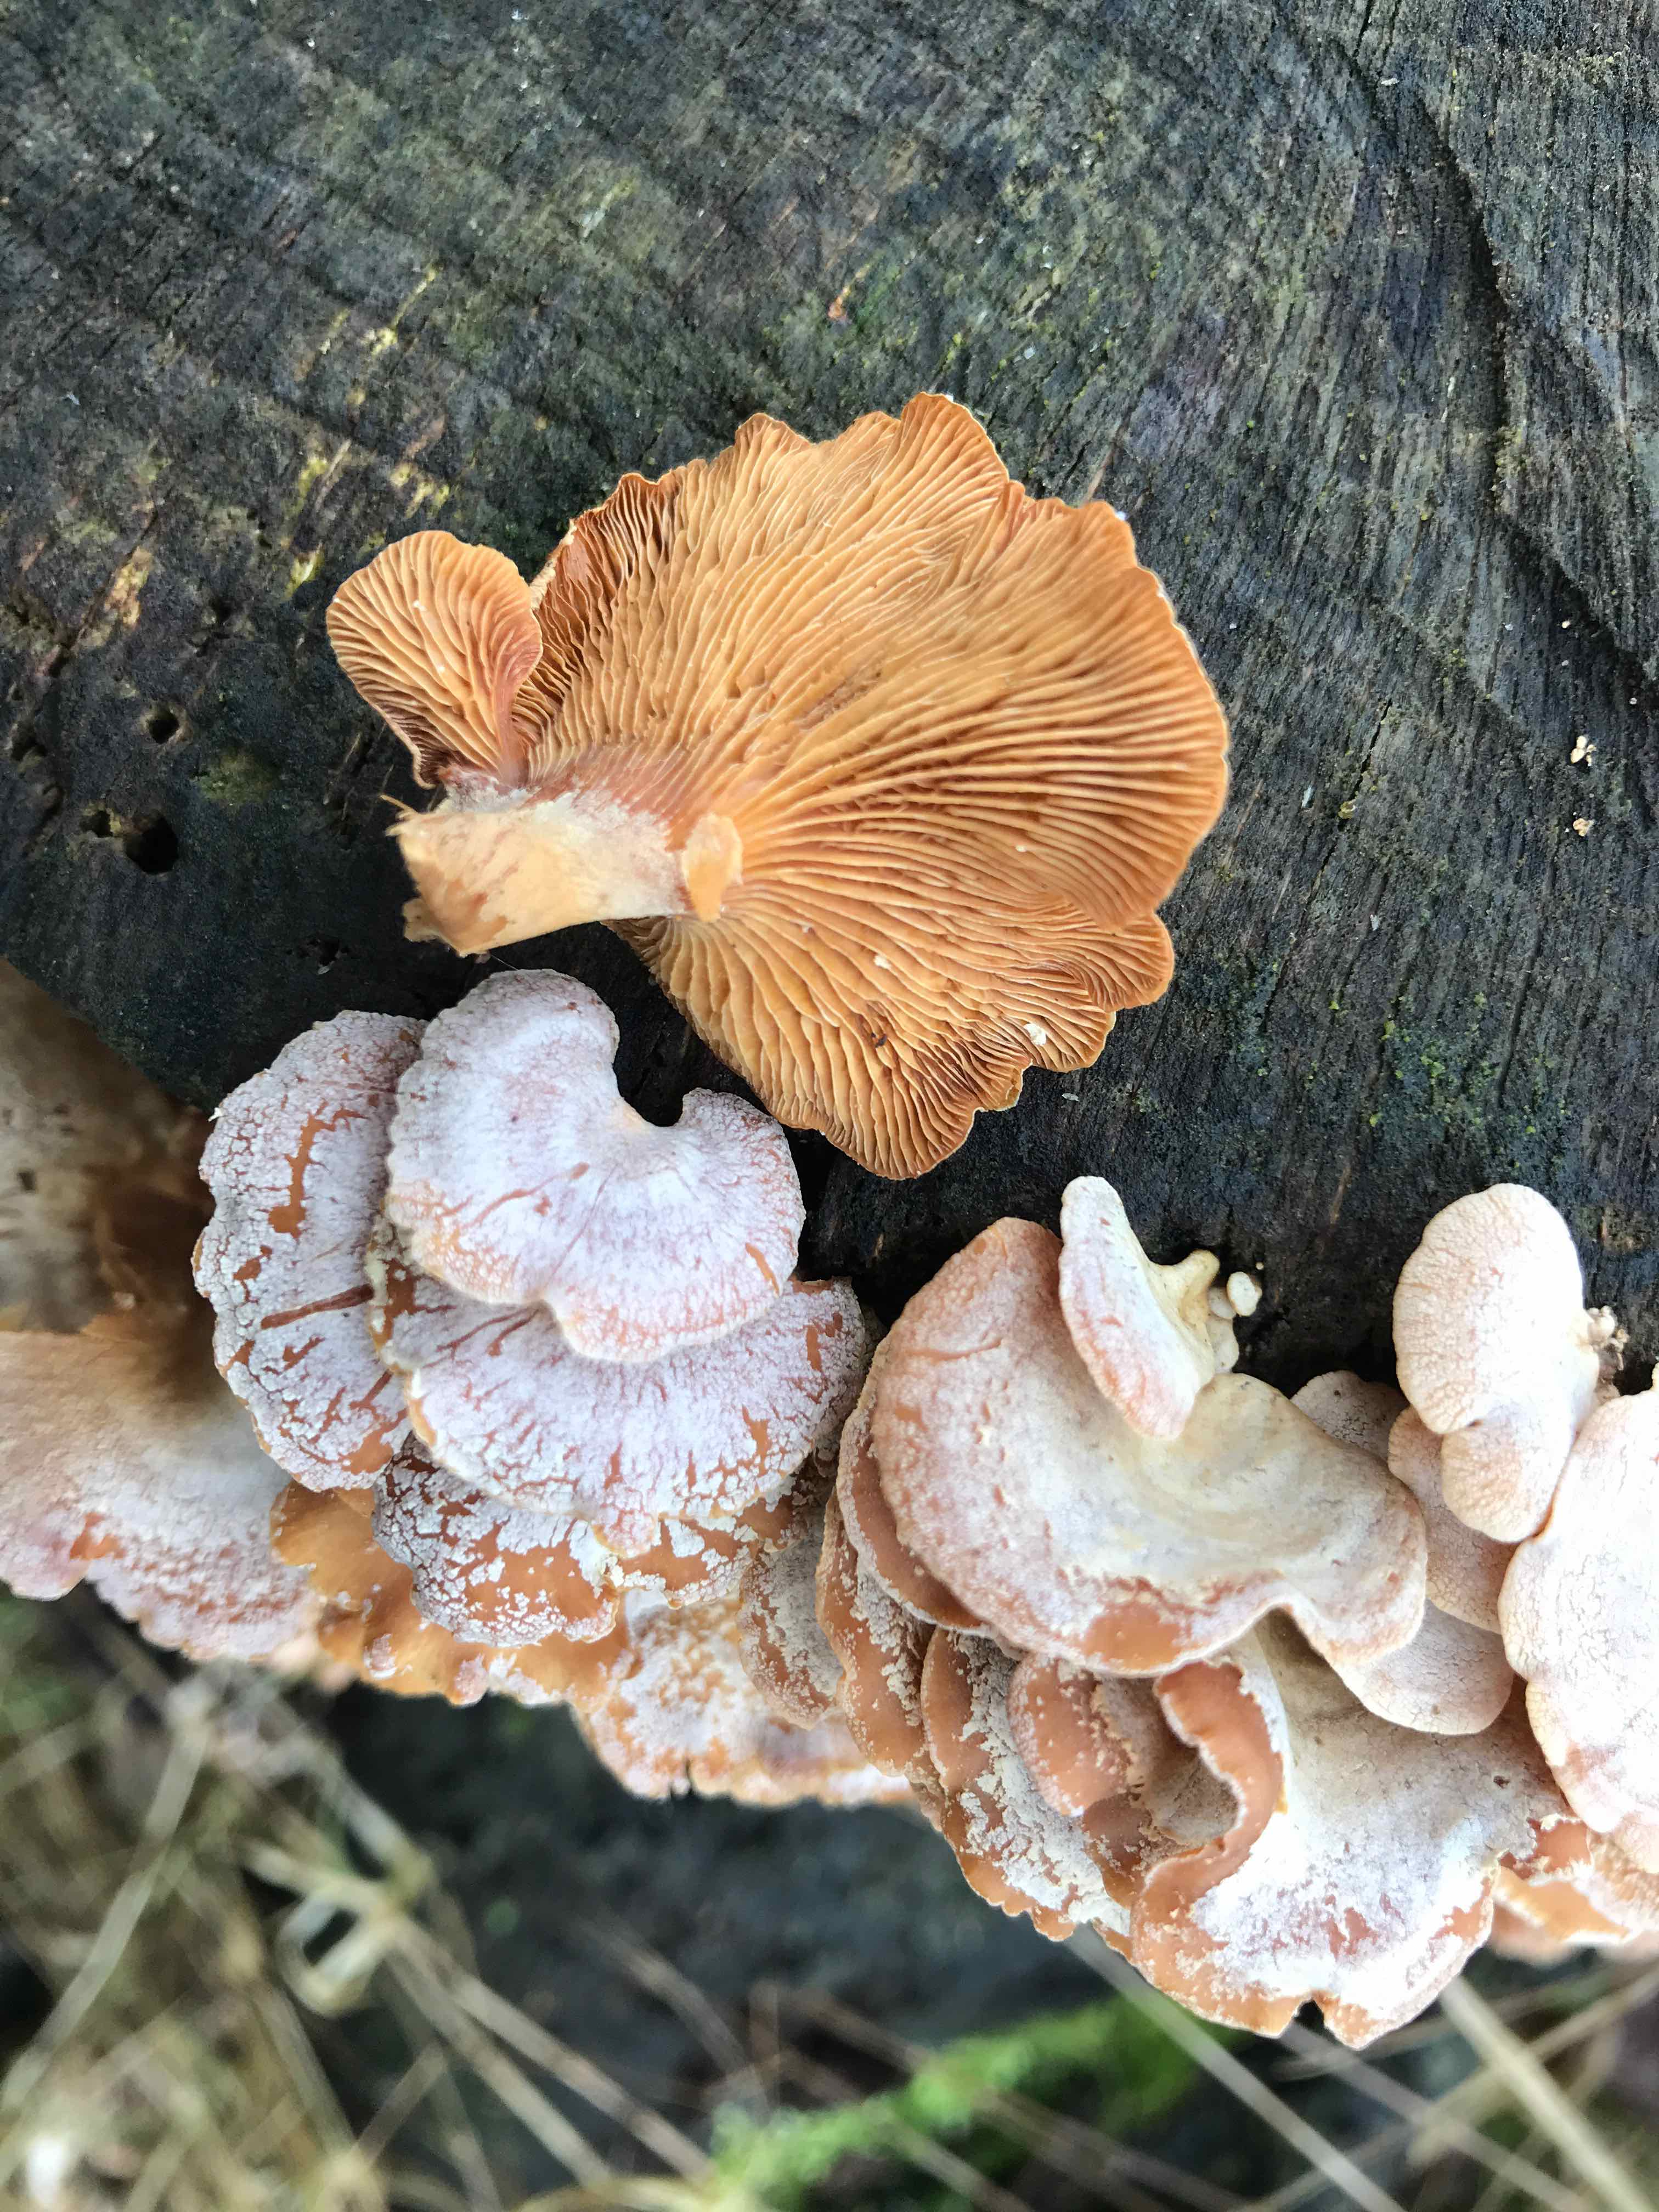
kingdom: Fungi
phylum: Basidiomycota
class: Agaricomycetes
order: Agaricales
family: Mycenaceae
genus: Panellus
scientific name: Panellus stipticus
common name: kliddet epaulethat
